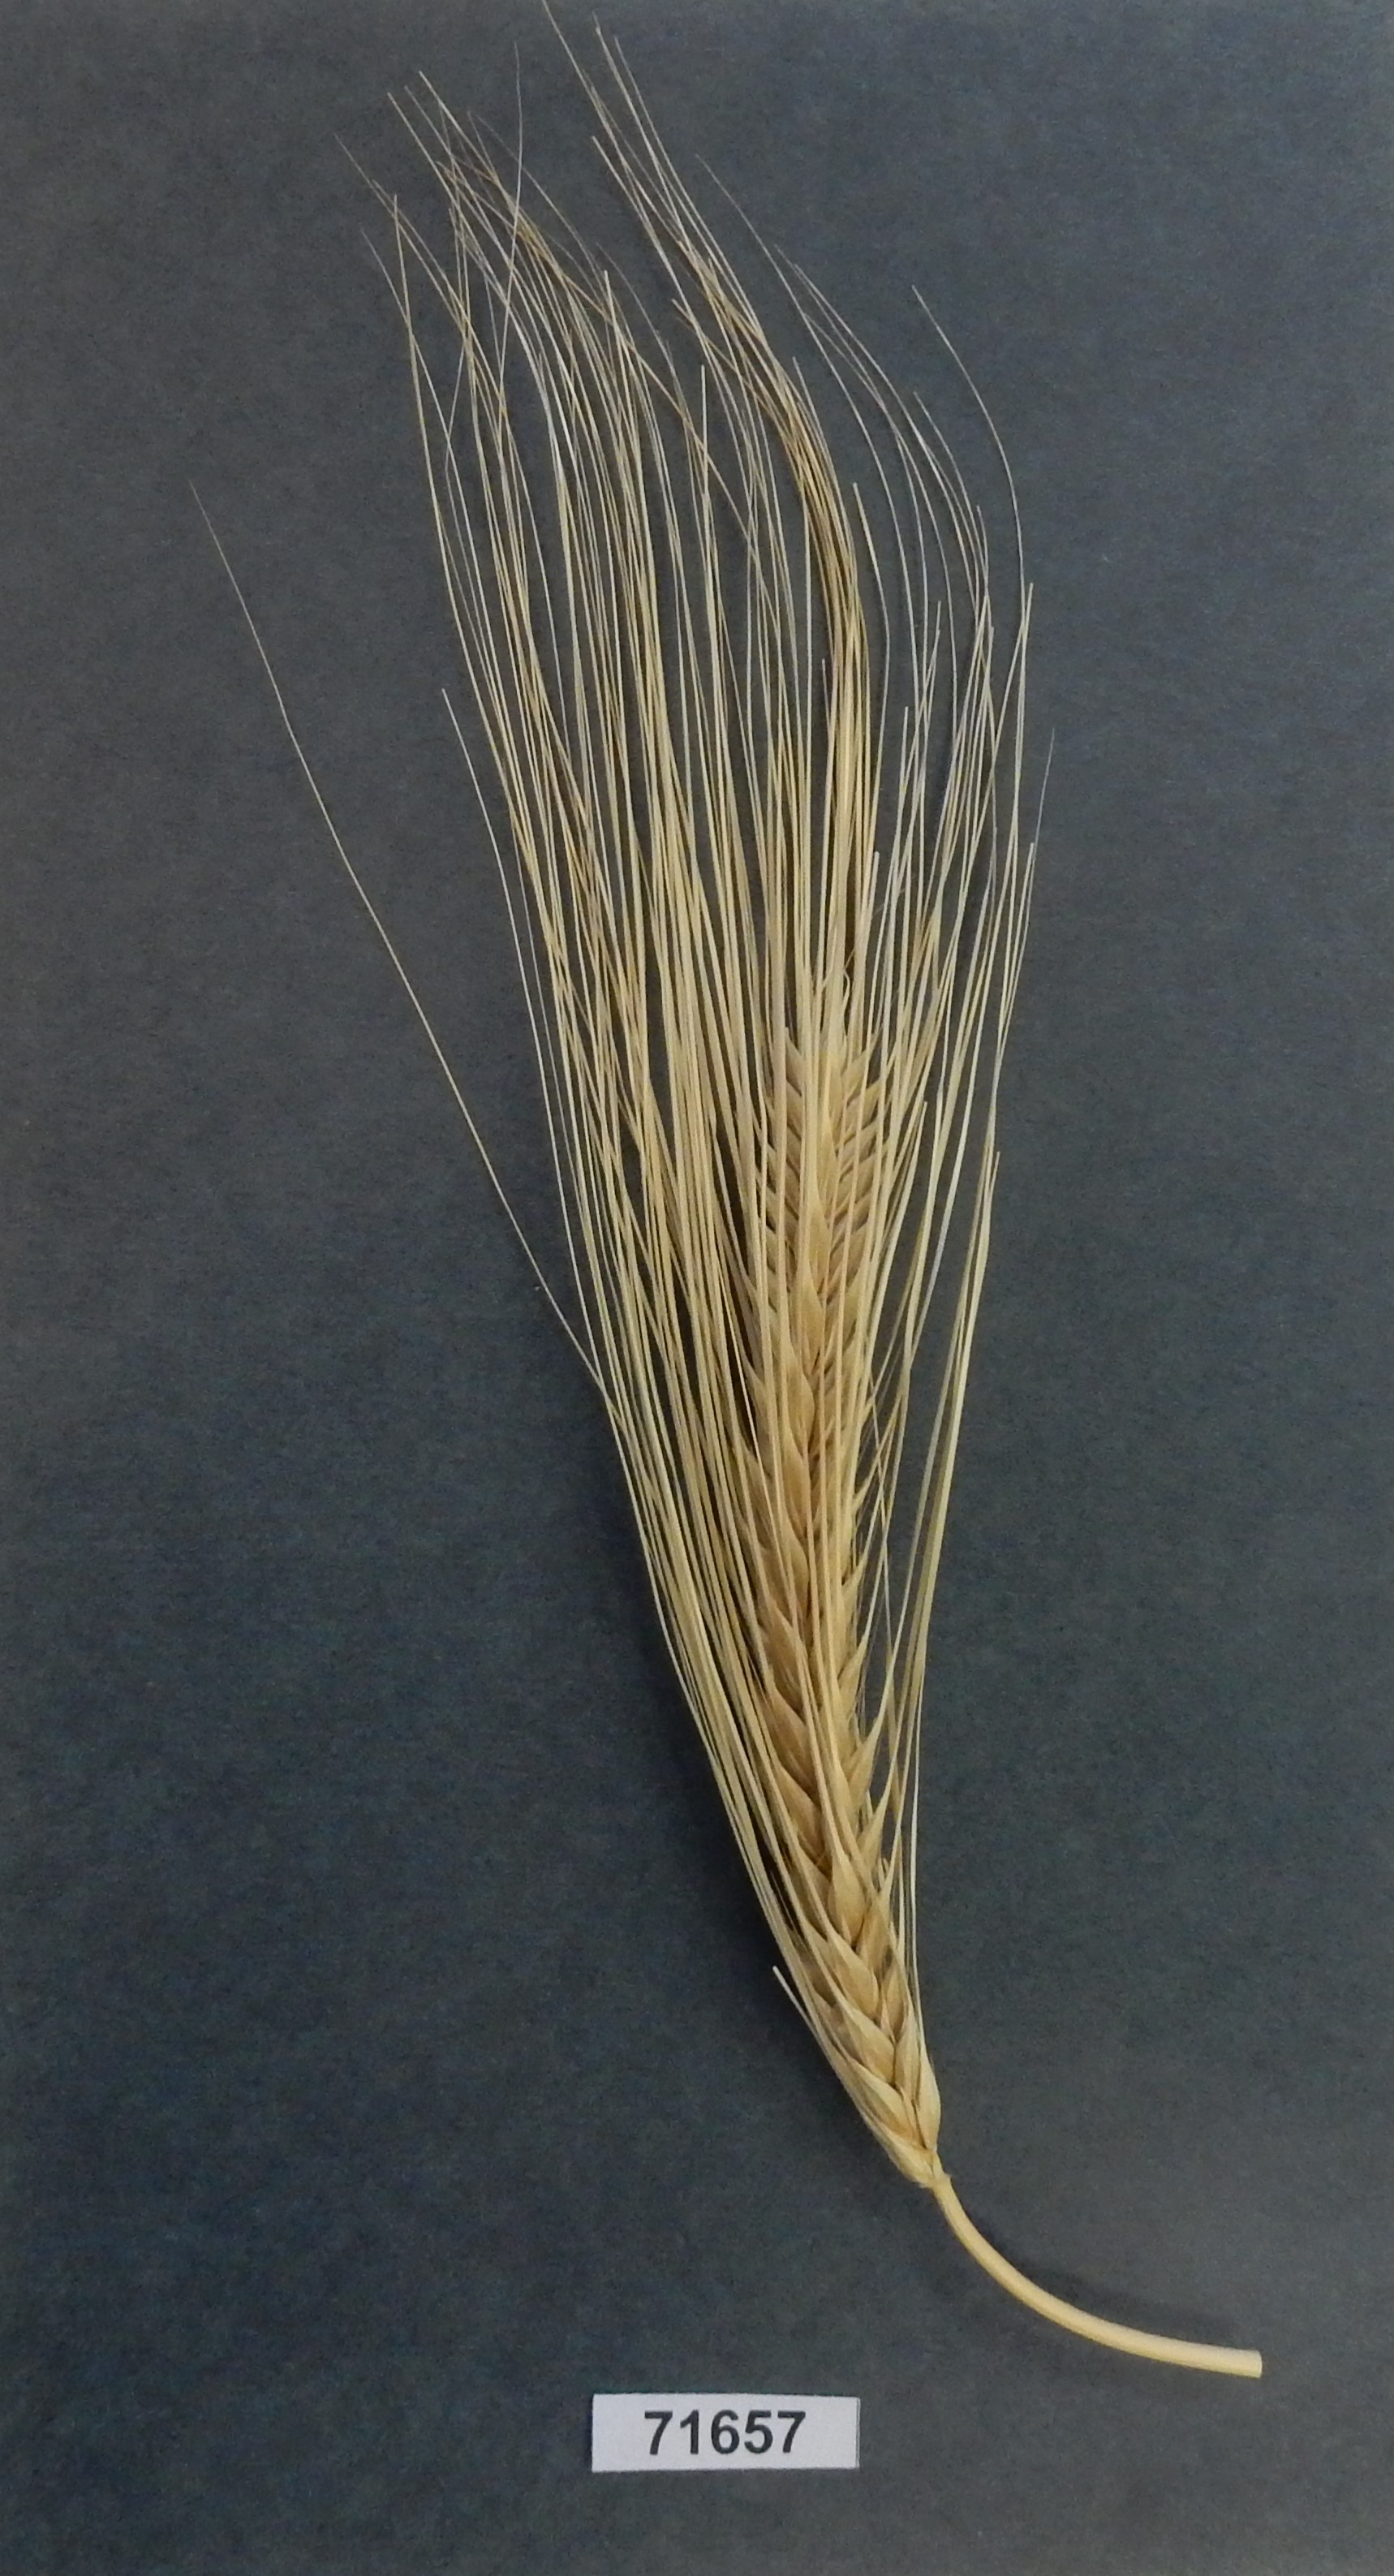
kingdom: Plantae
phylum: Tracheophyta
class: Liliopsida
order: Poales
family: Poaceae
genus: Hordeum
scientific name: Hordeum
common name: Barley
